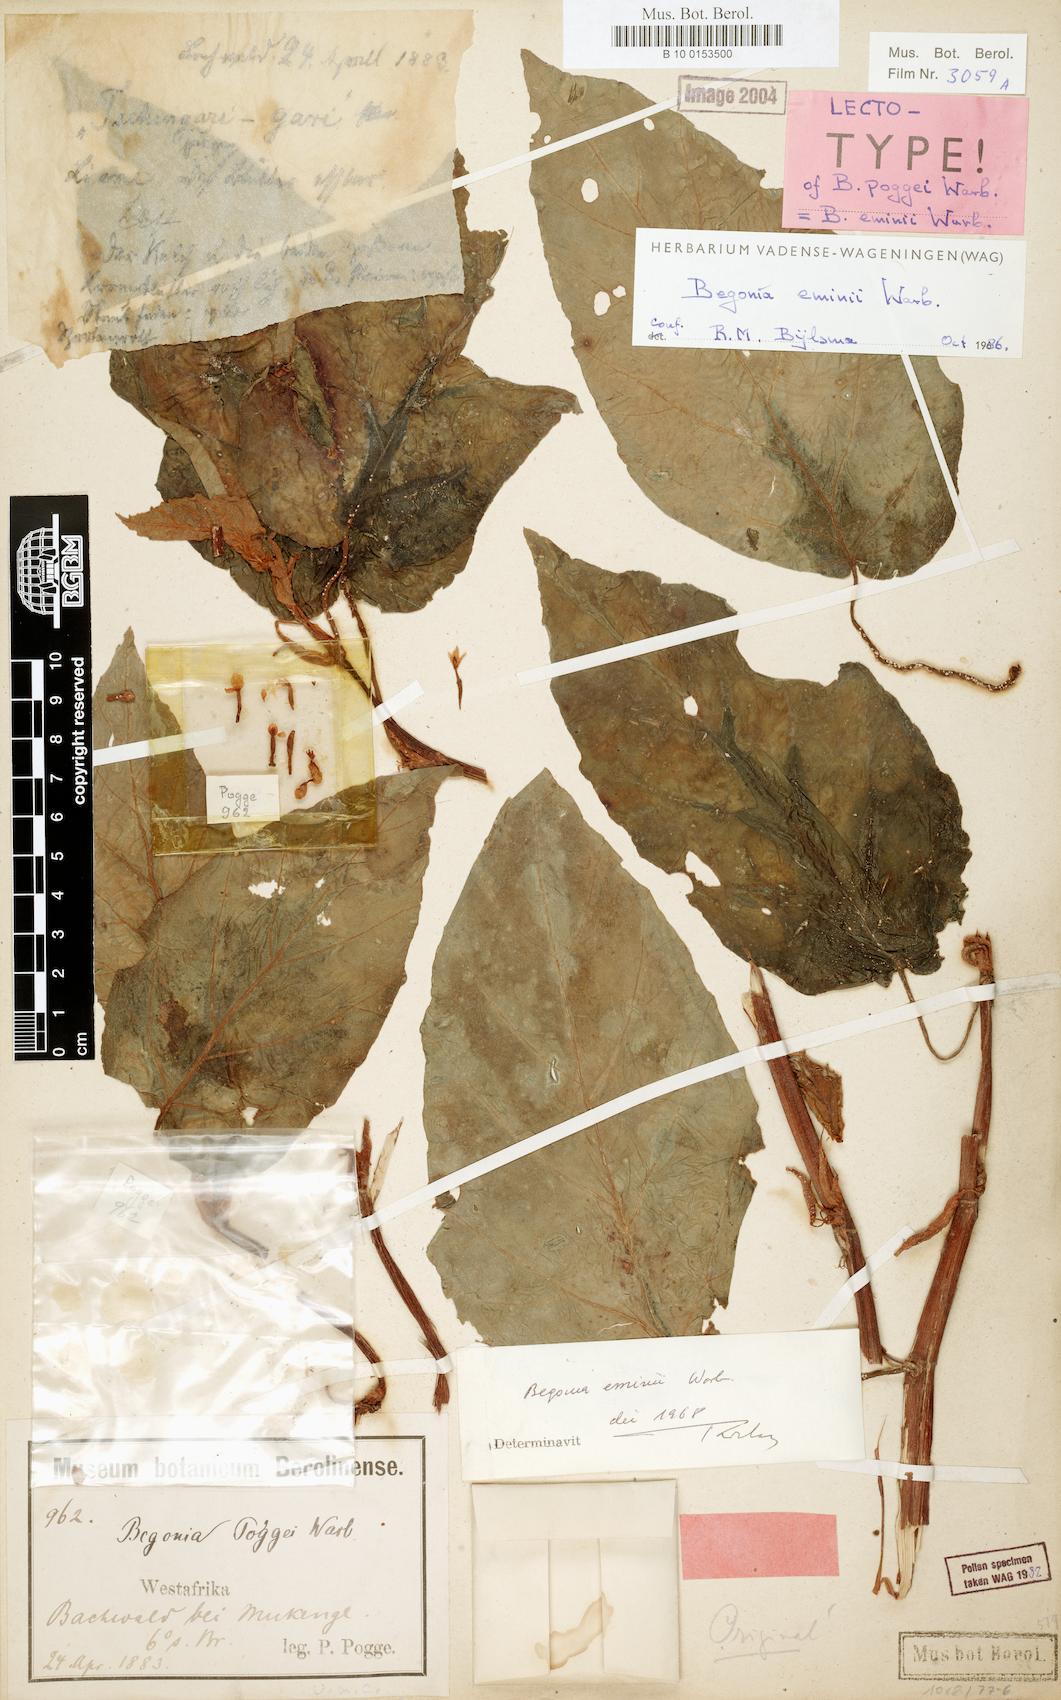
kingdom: Plantae
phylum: Tracheophyta
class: Magnoliopsida
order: Cucurbitales
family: Begoniaceae
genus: Begonia
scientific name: Begonia eminii
